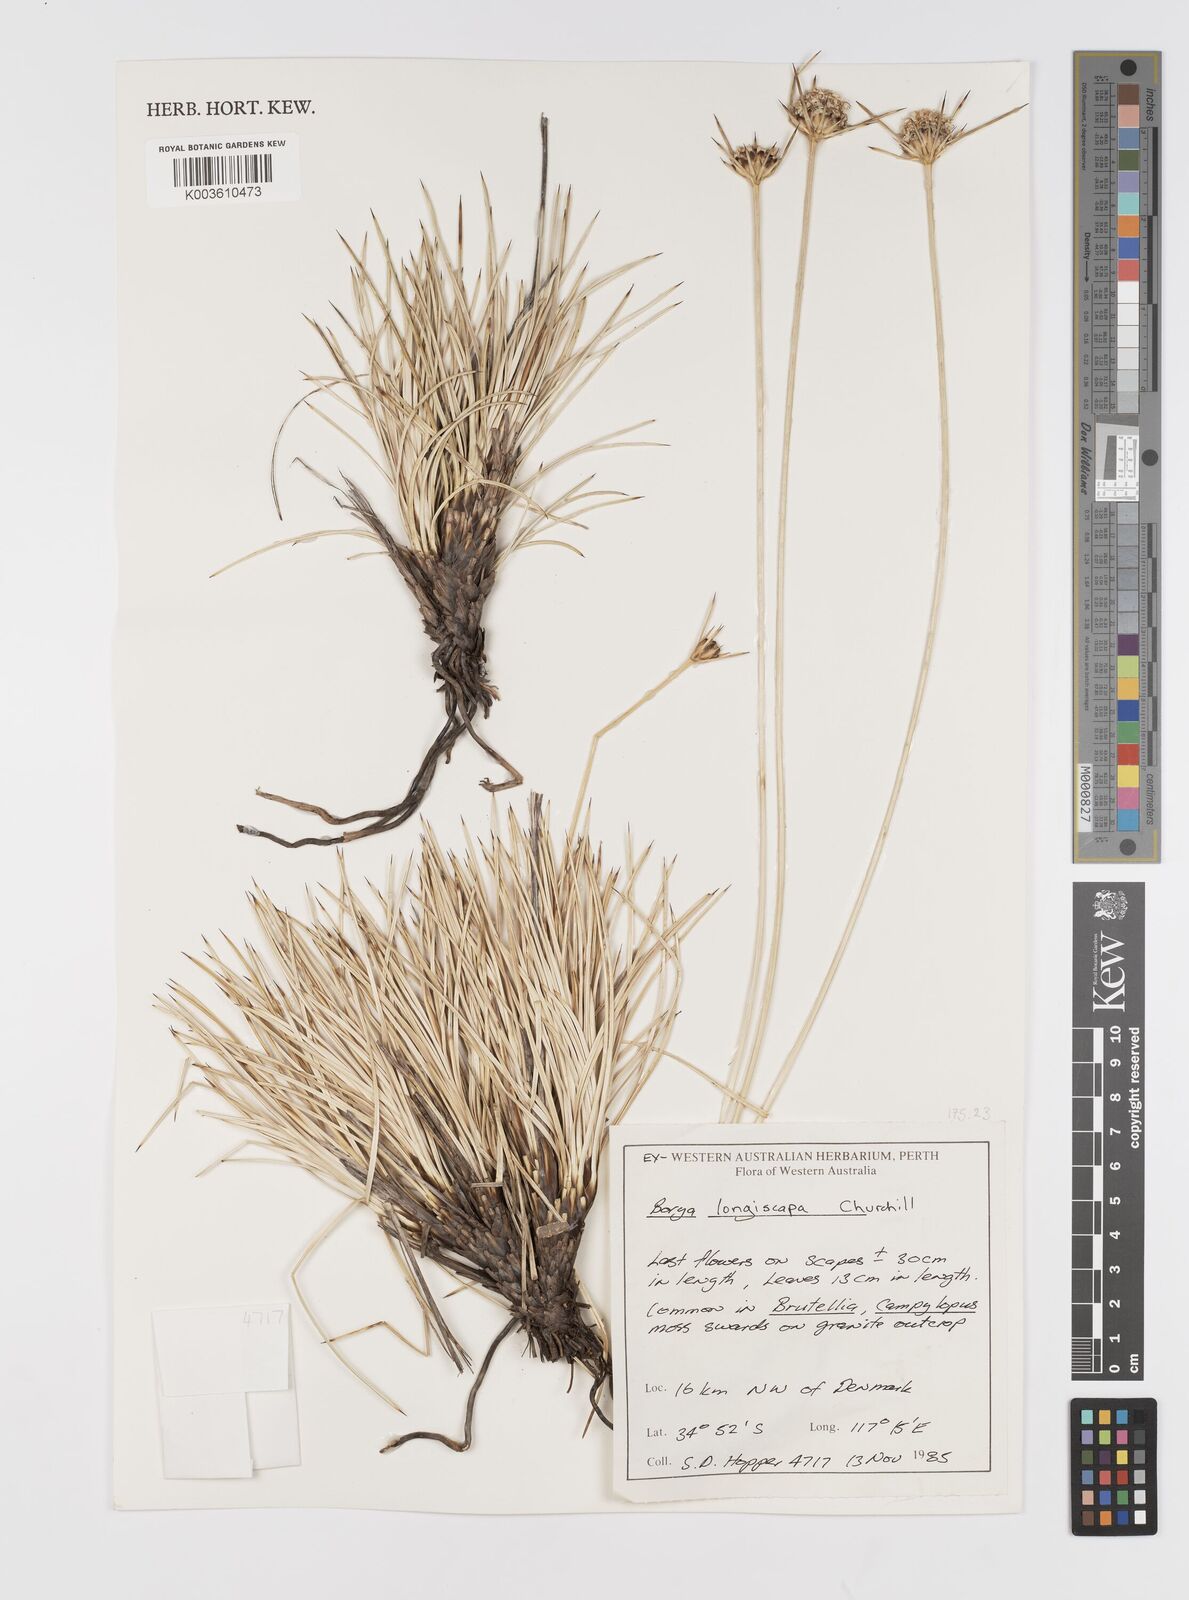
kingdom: Plantae
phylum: Tracheophyta
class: Liliopsida
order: Asparagales
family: Boryaceae
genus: Borya
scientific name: Borya longiscapa
